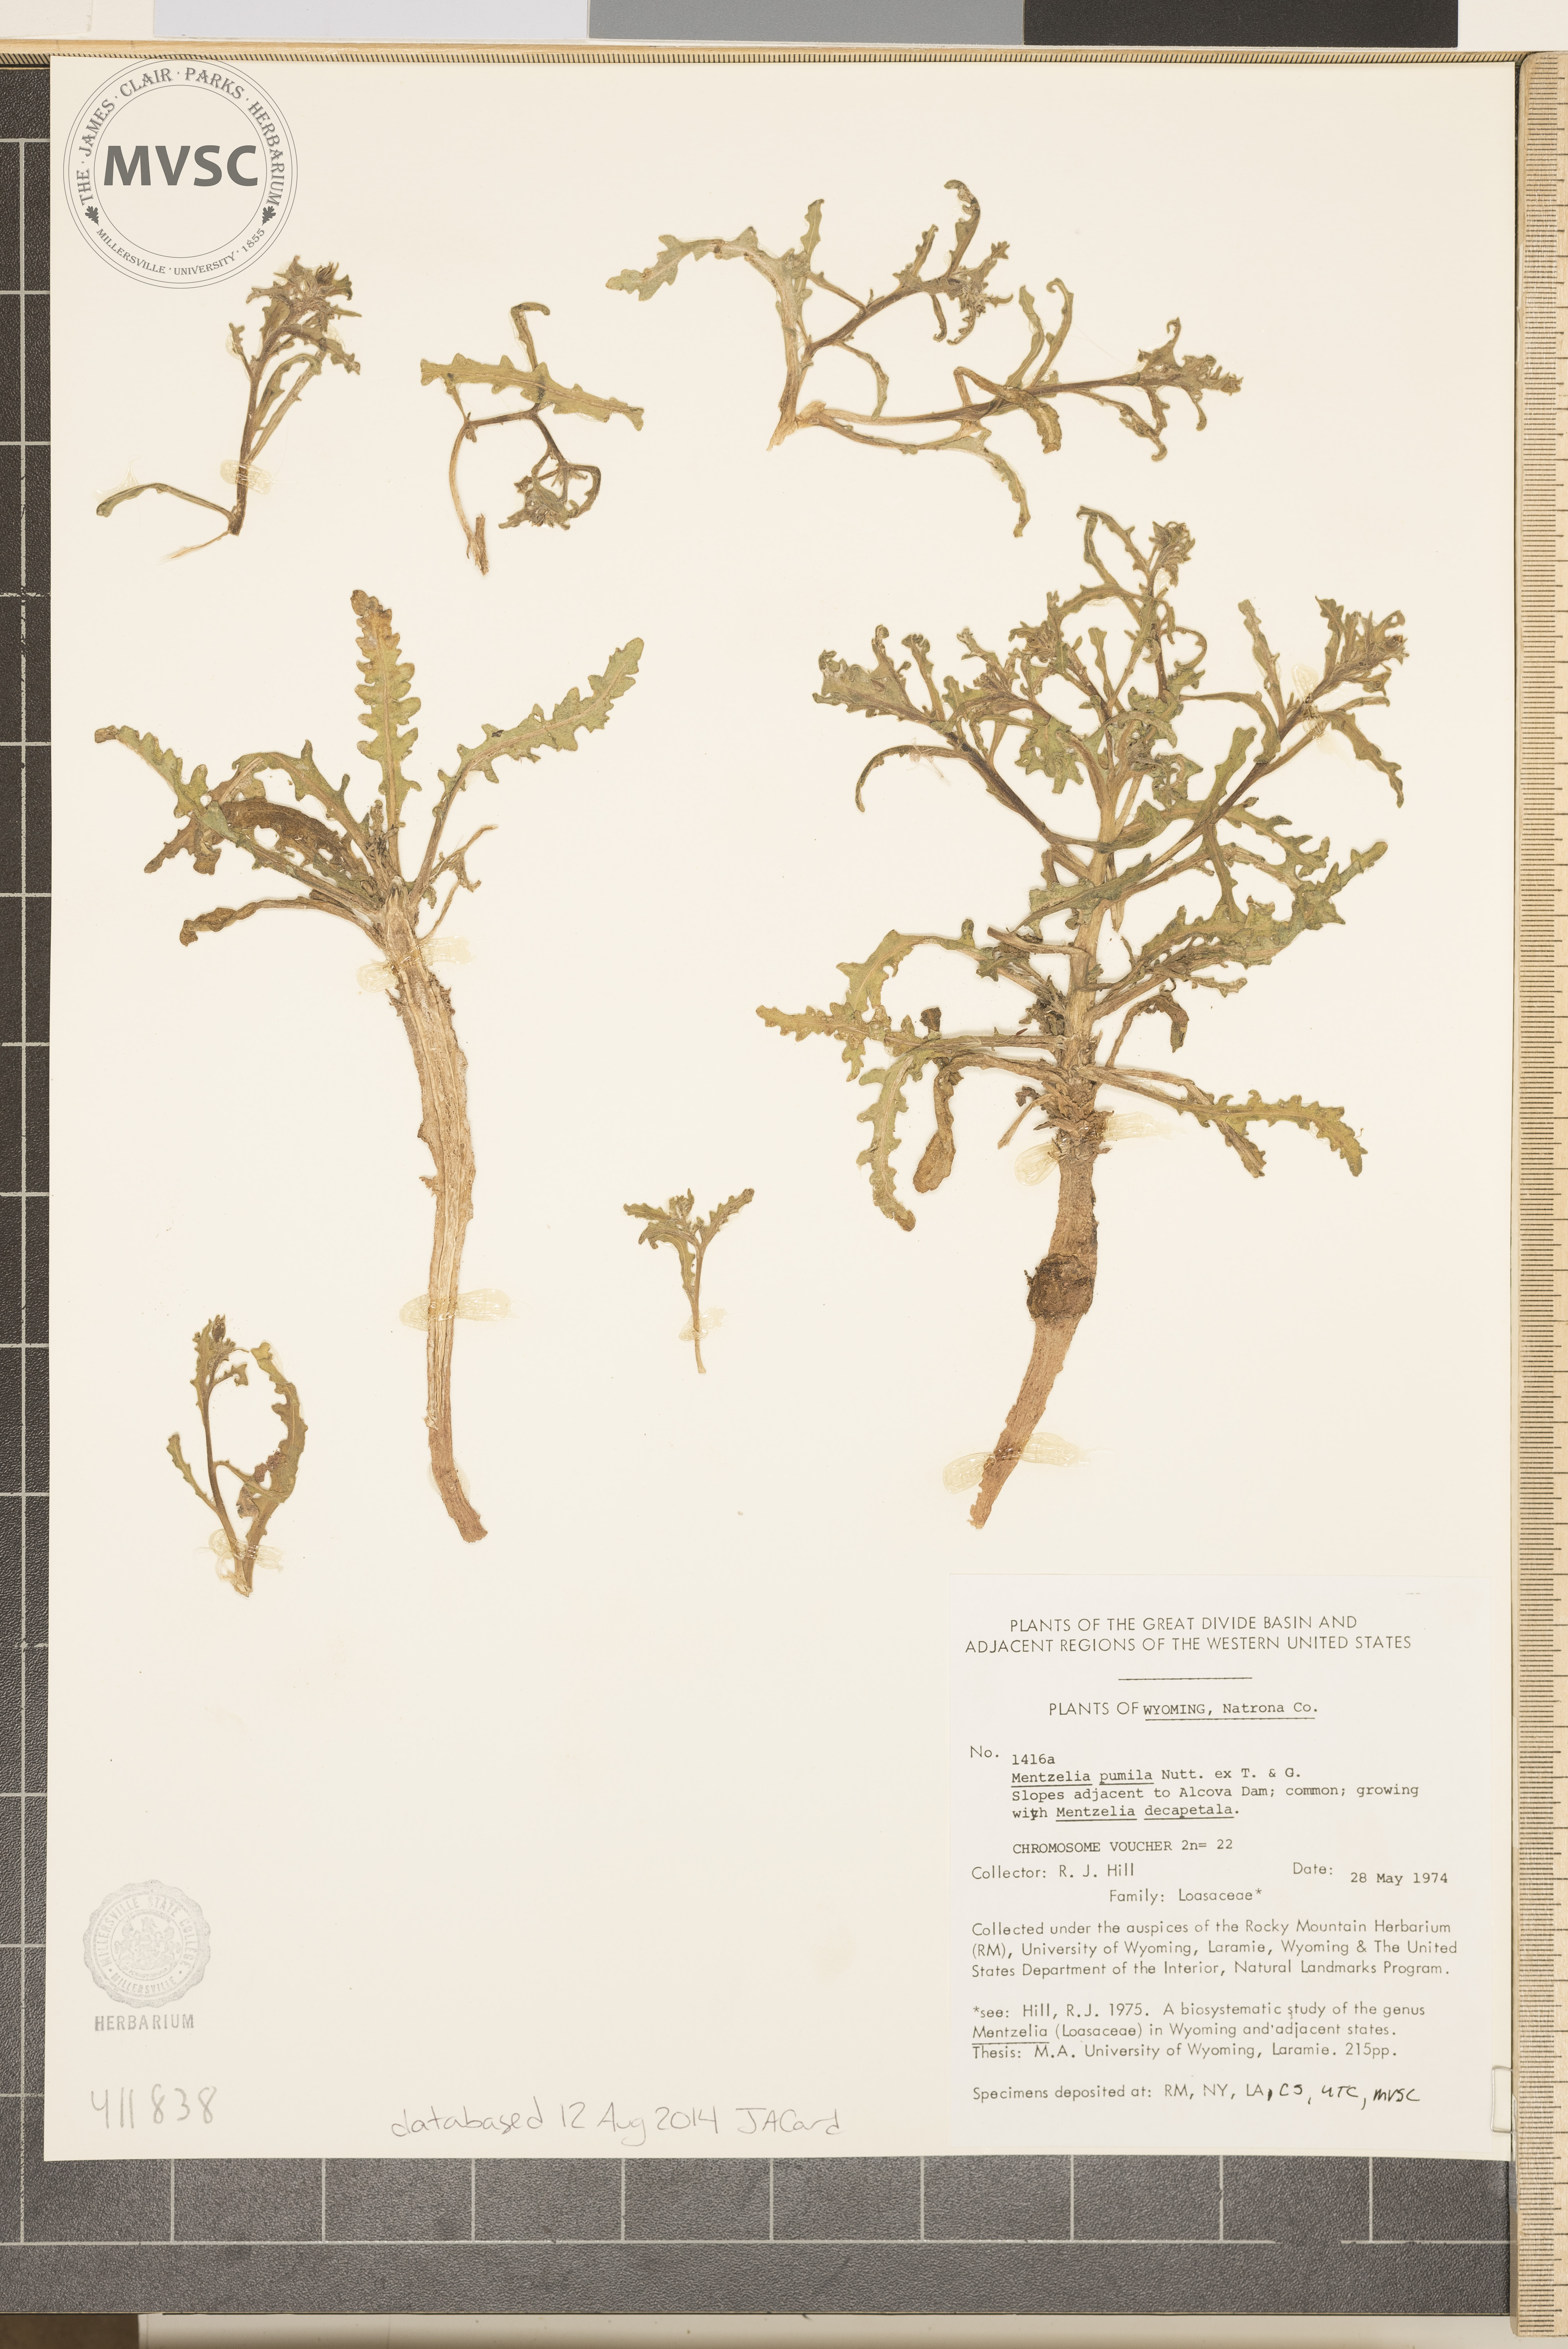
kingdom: Plantae
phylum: Tracheophyta
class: Magnoliopsida
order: Cornales
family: Loasaceae
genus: Mentzelia
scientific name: Mentzelia pumila
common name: Wyoming stickleaf
